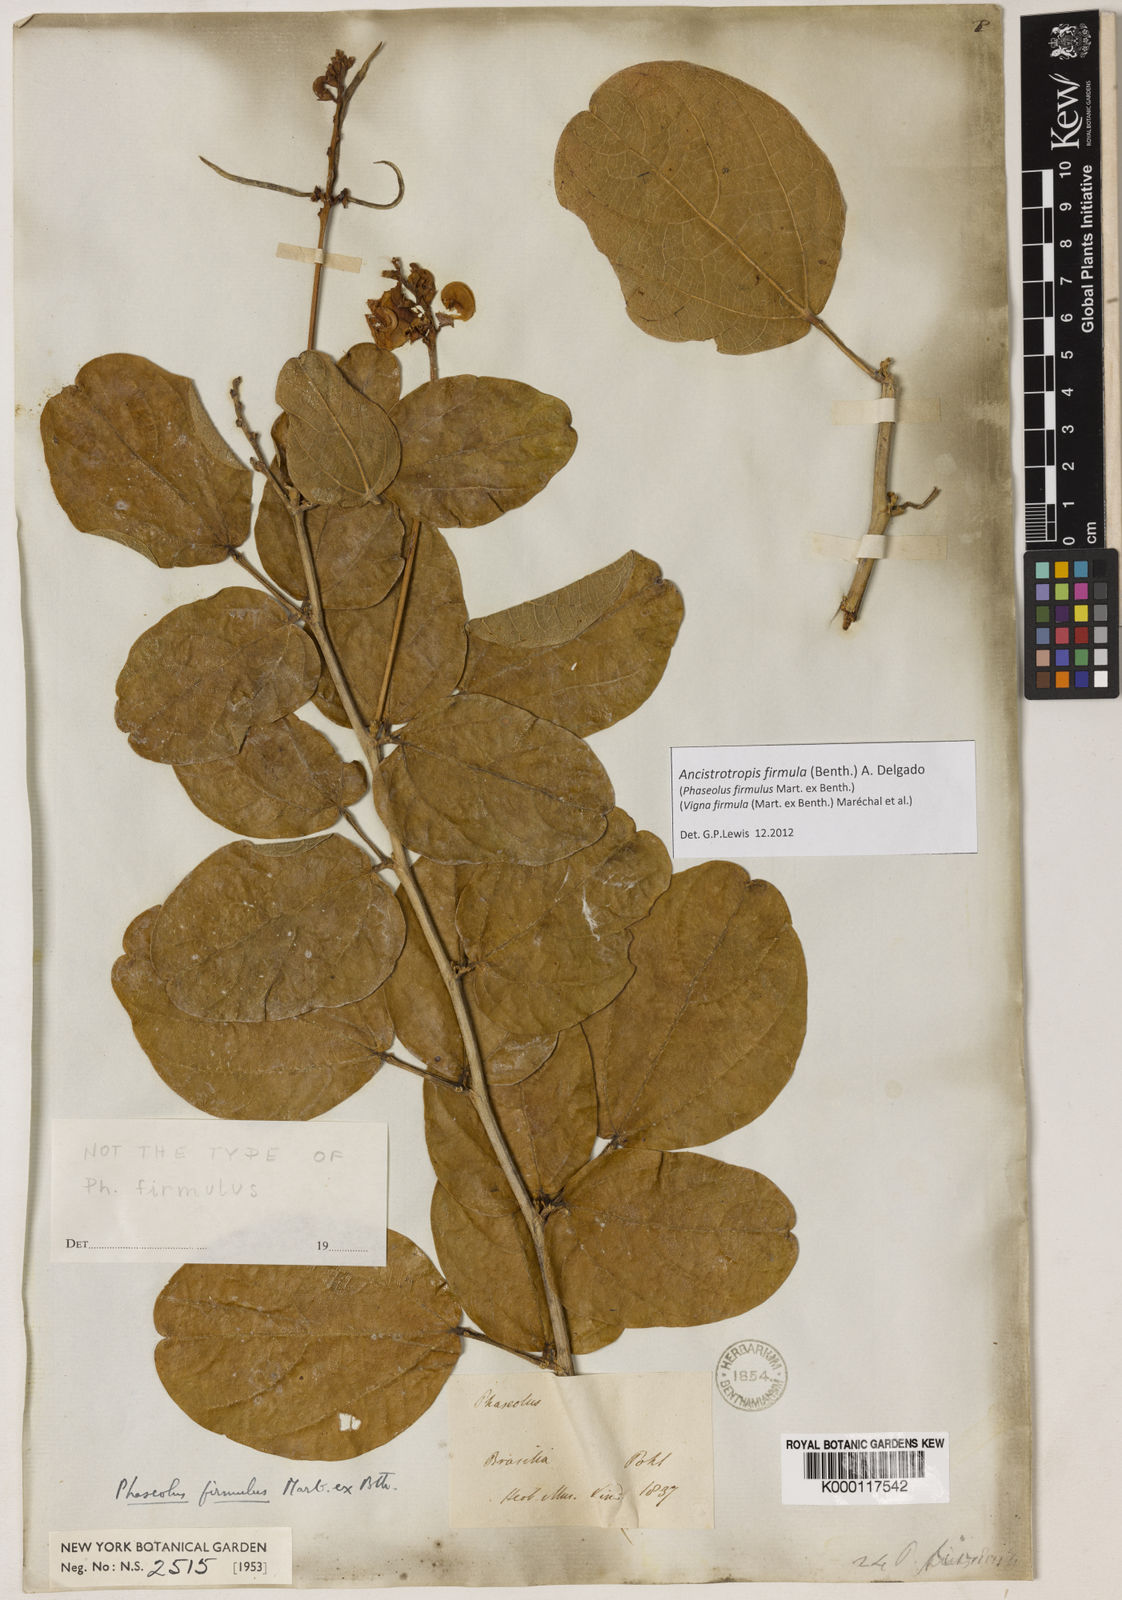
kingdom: Plantae
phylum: Tracheophyta
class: Magnoliopsida
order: Fabales
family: Fabaceae
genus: Ancistrotropis
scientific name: Ancistrotropis firmula
